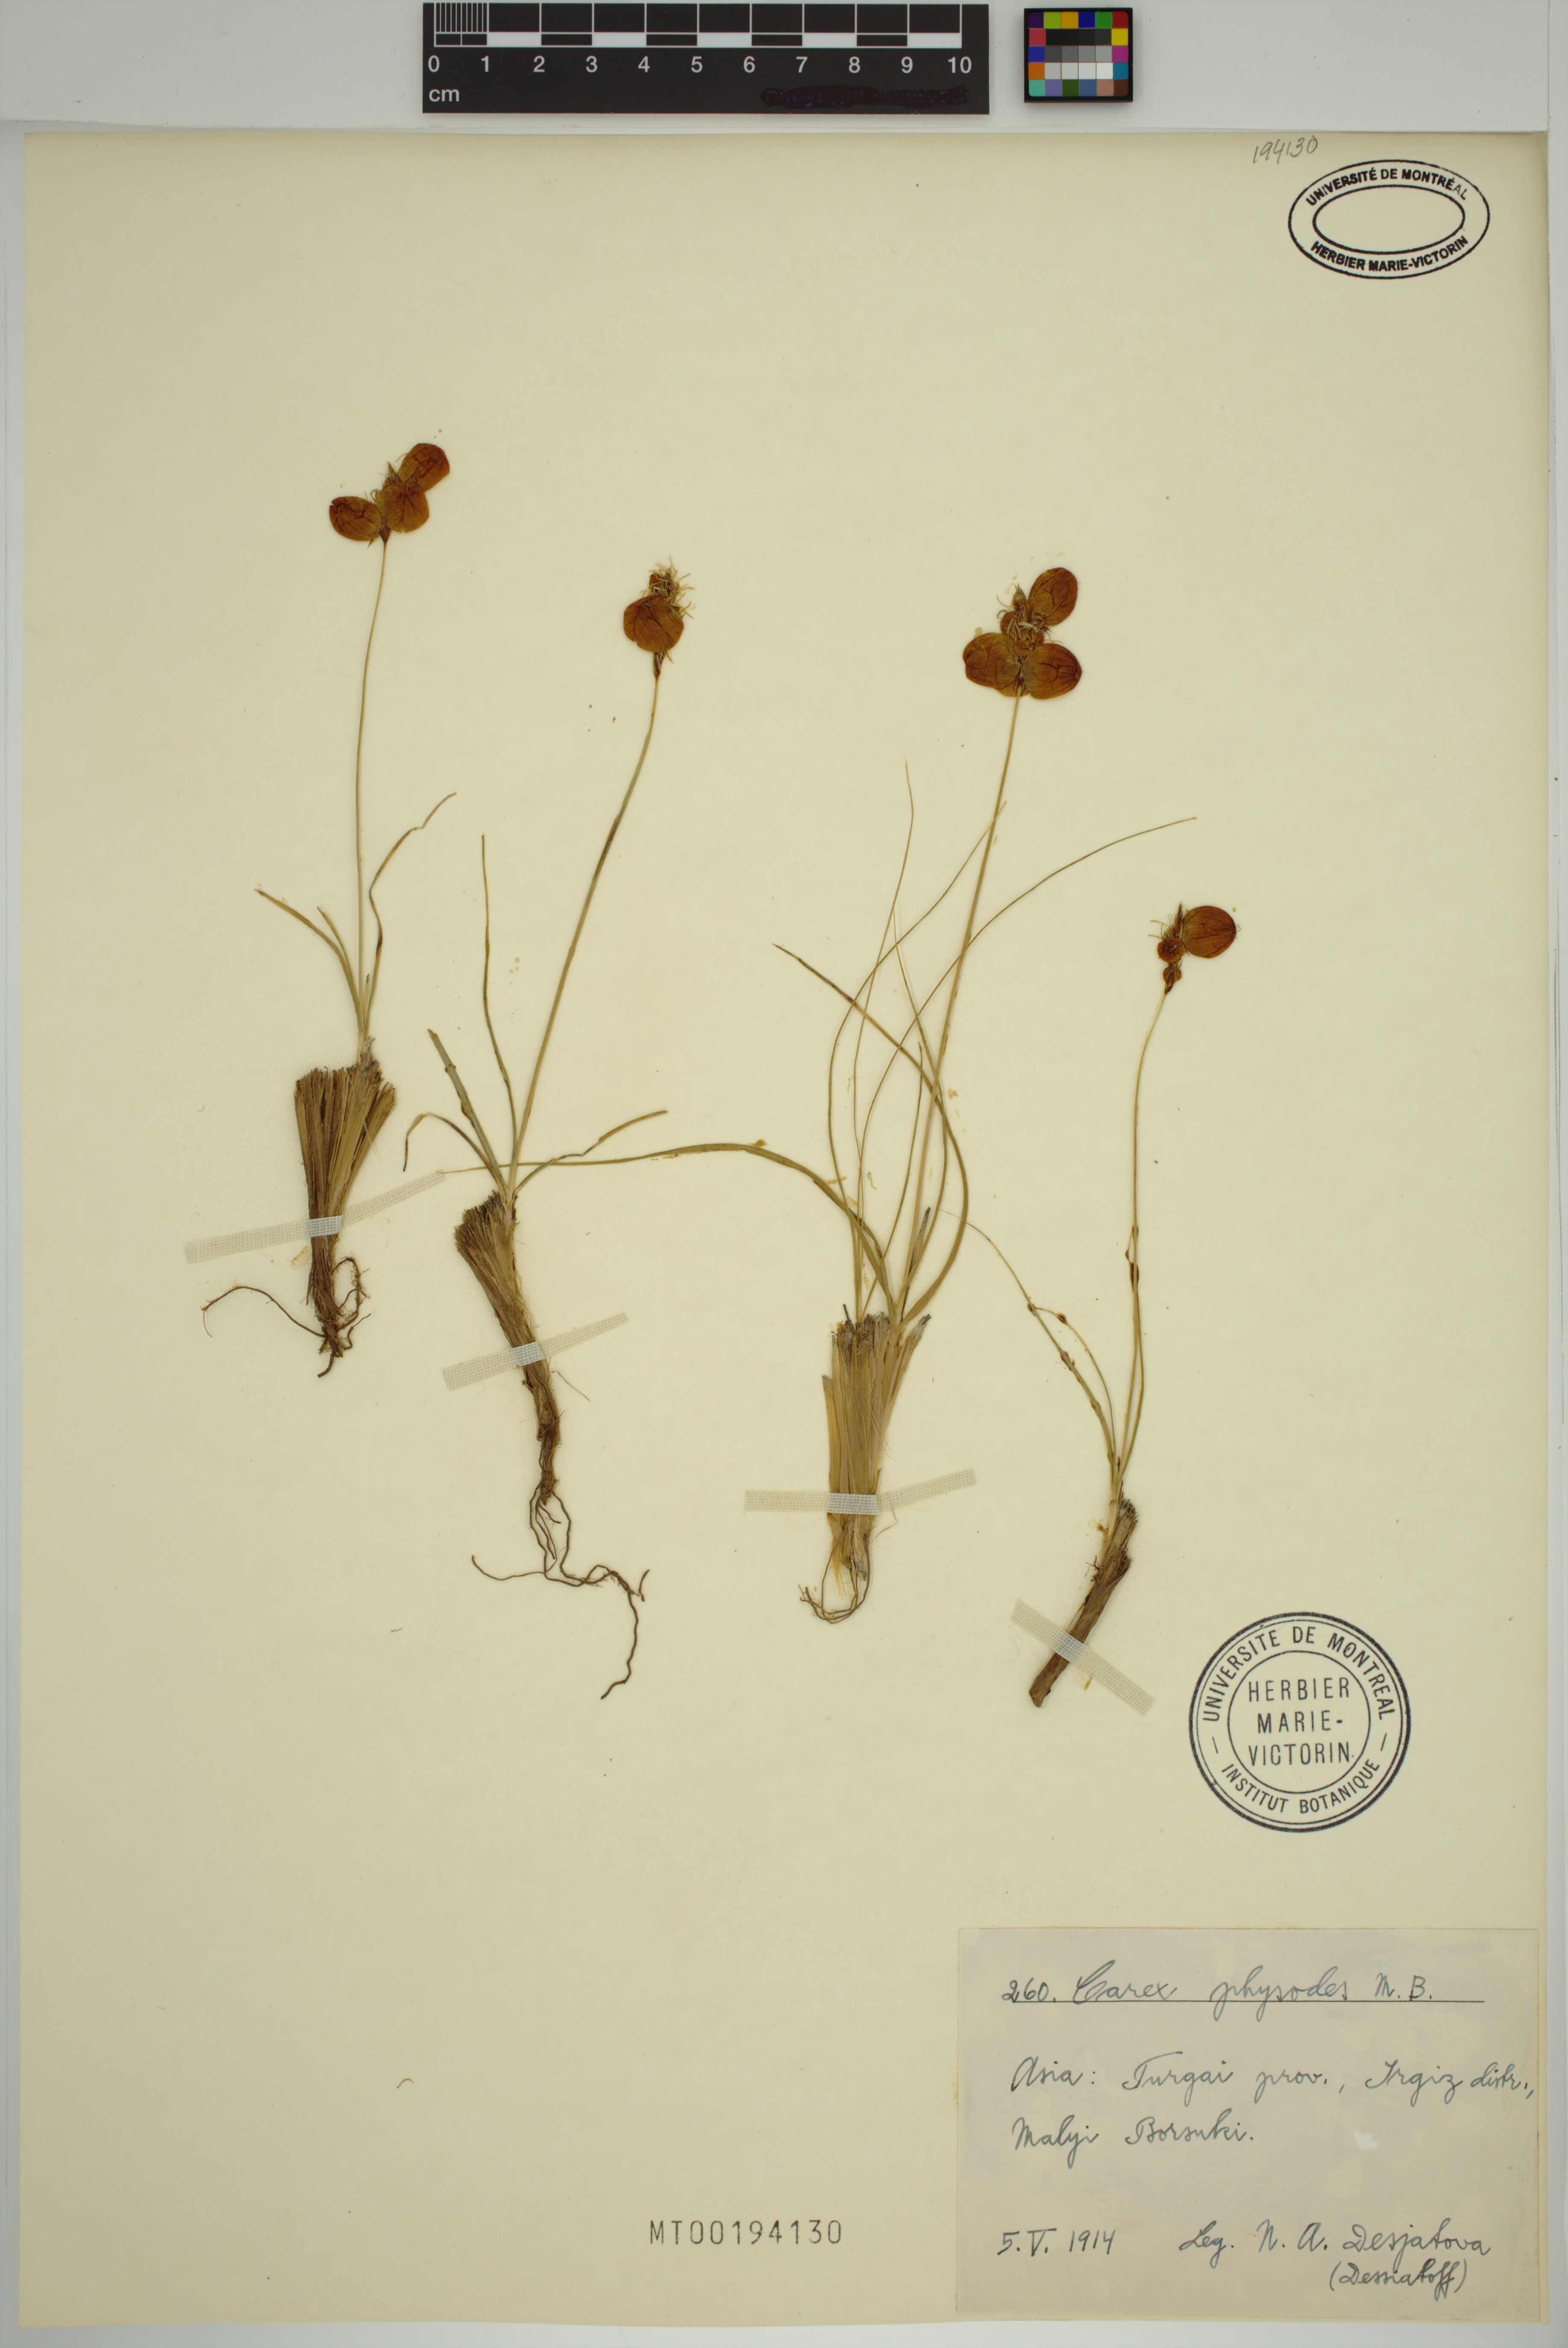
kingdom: Plantae
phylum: Tracheophyta
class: Liliopsida
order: Poales
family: Cyperaceae
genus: Carex
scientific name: Carex physodes
